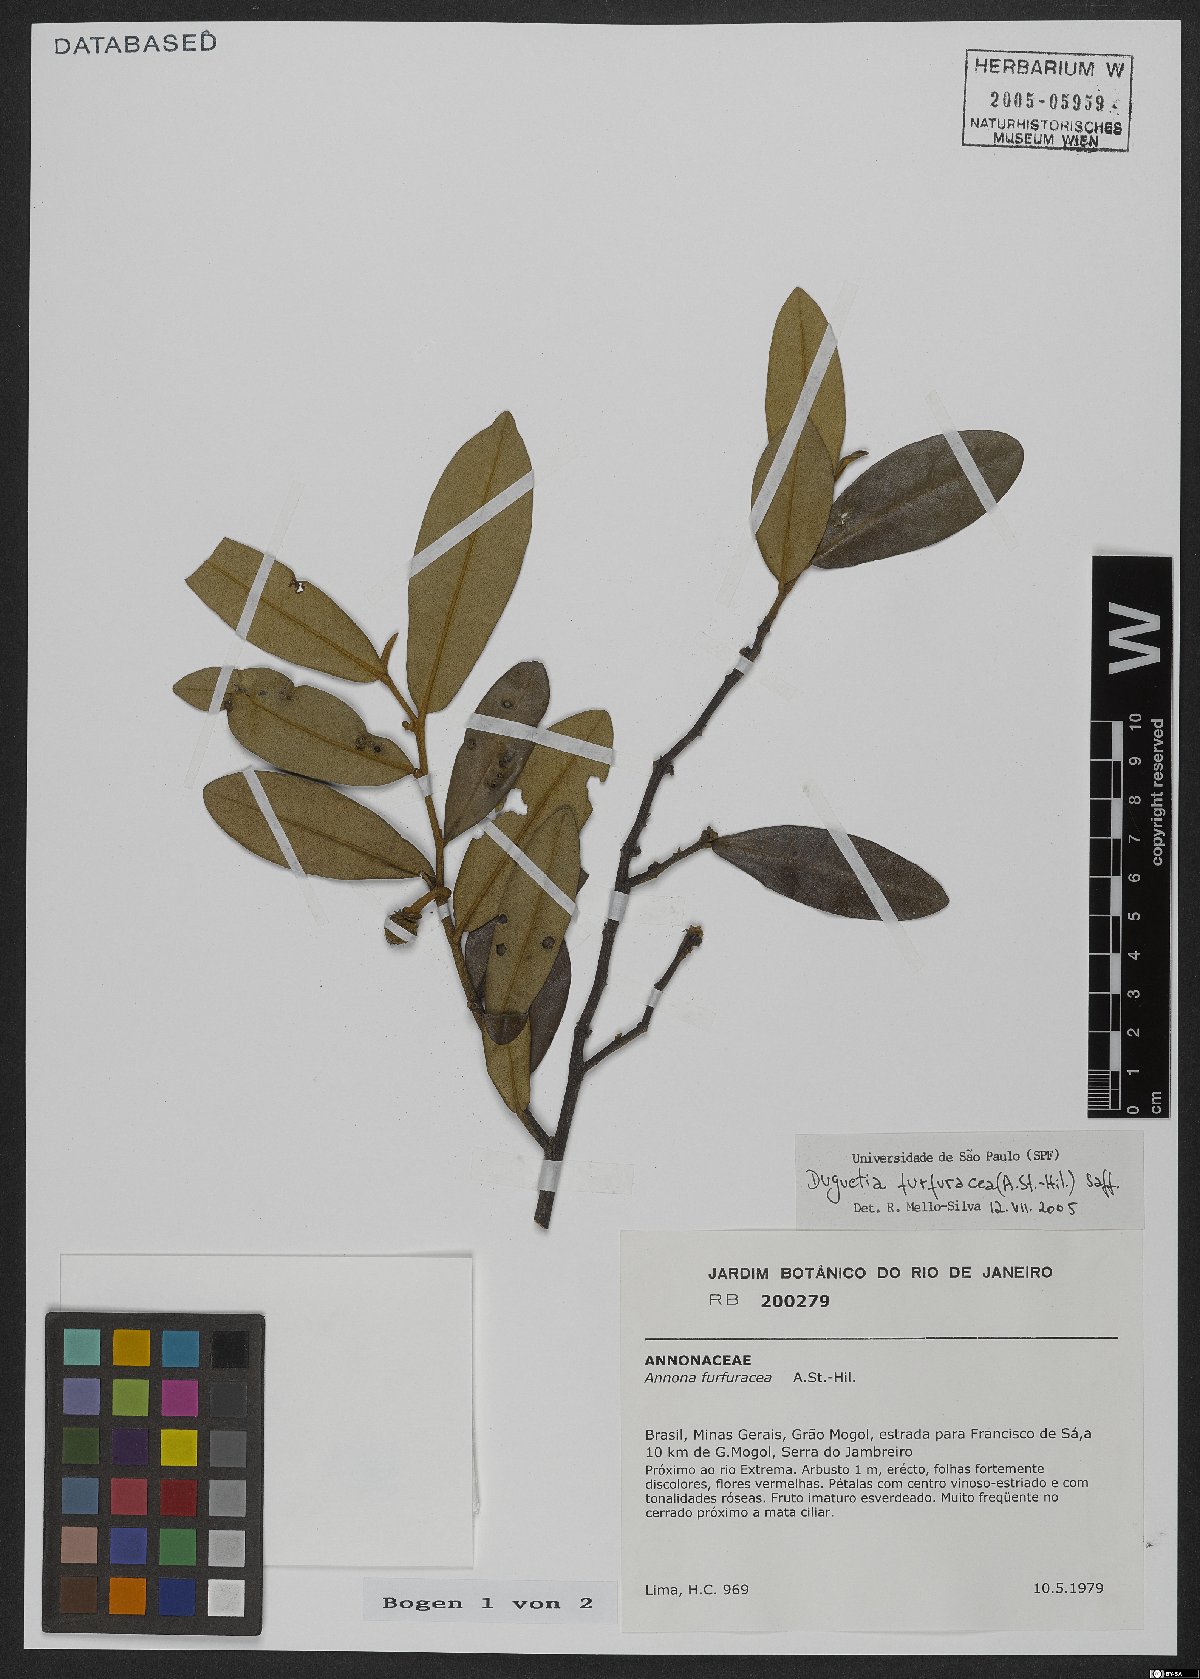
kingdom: Plantae
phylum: Tracheophyta
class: Magnoliopsida
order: Magnoliales
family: Annonaceae
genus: Duguetia
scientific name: Duguetia furfuracea
